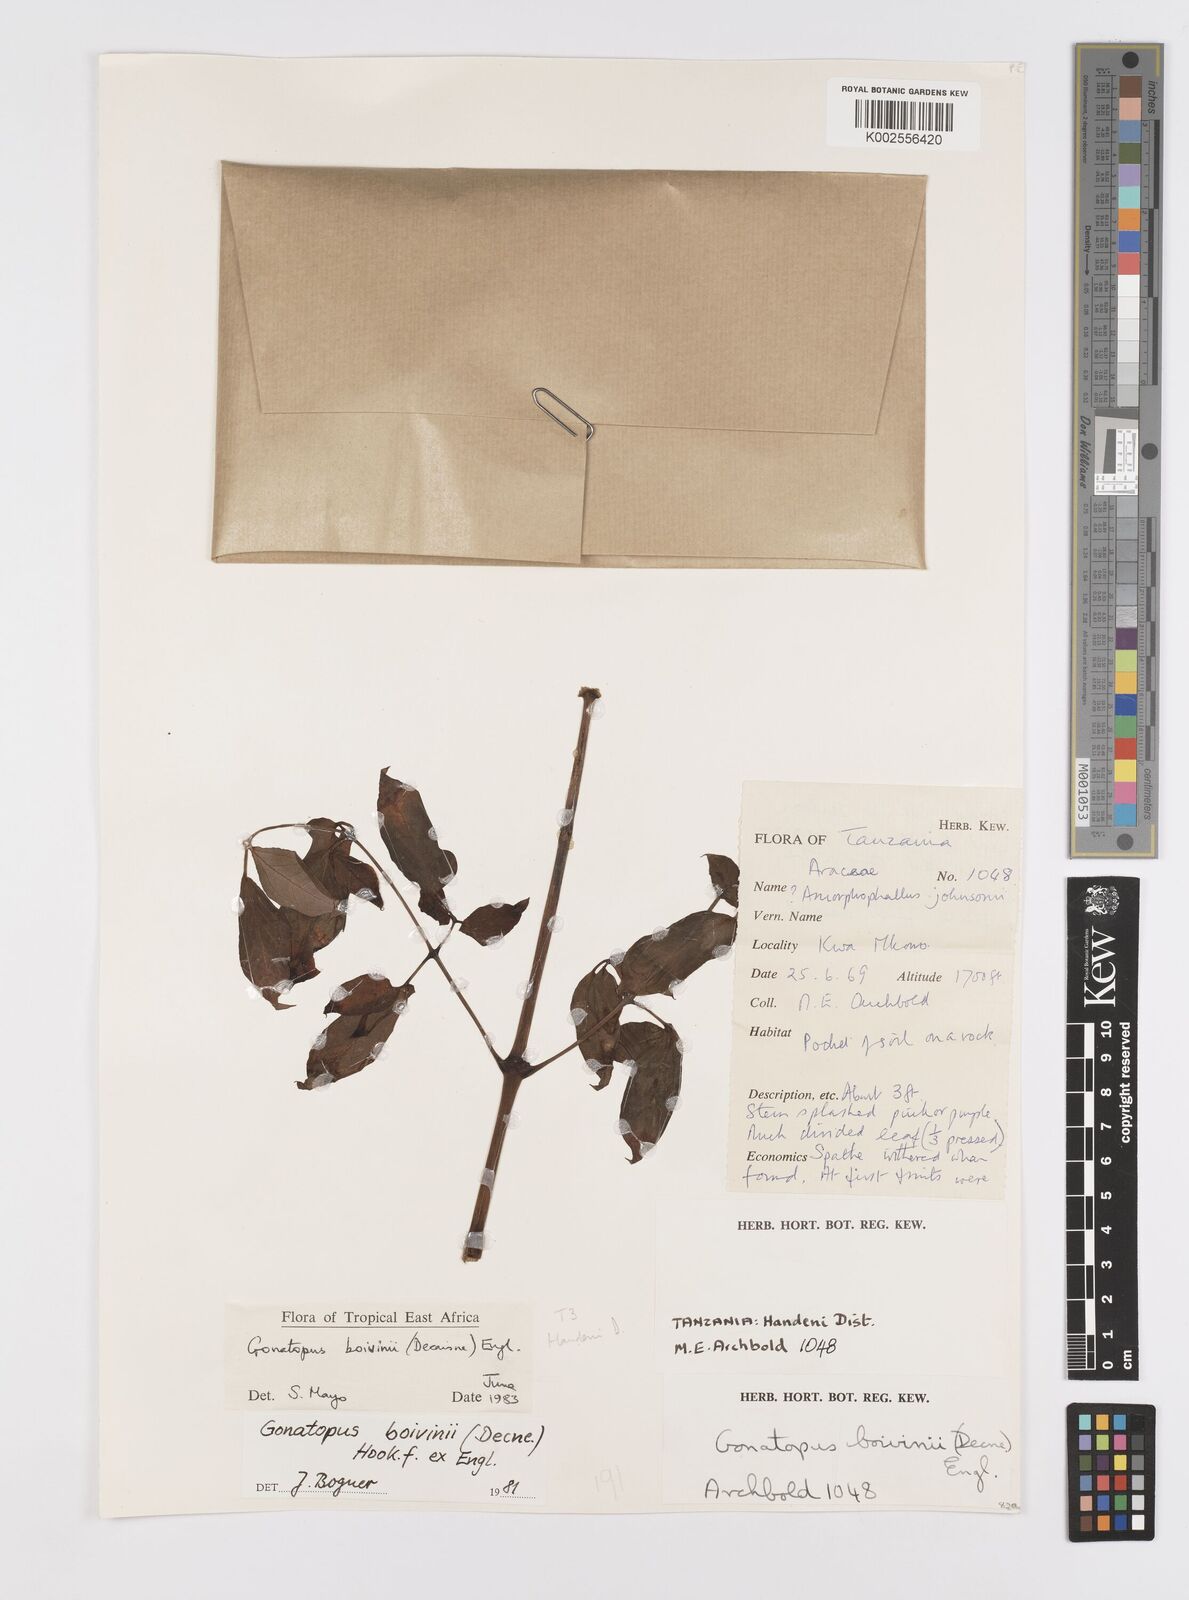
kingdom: Plantae
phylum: Tracheophyta
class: Liliopsida
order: Alismatales
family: Araceae
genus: Gonatopus
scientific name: Gonatopus boivinii
